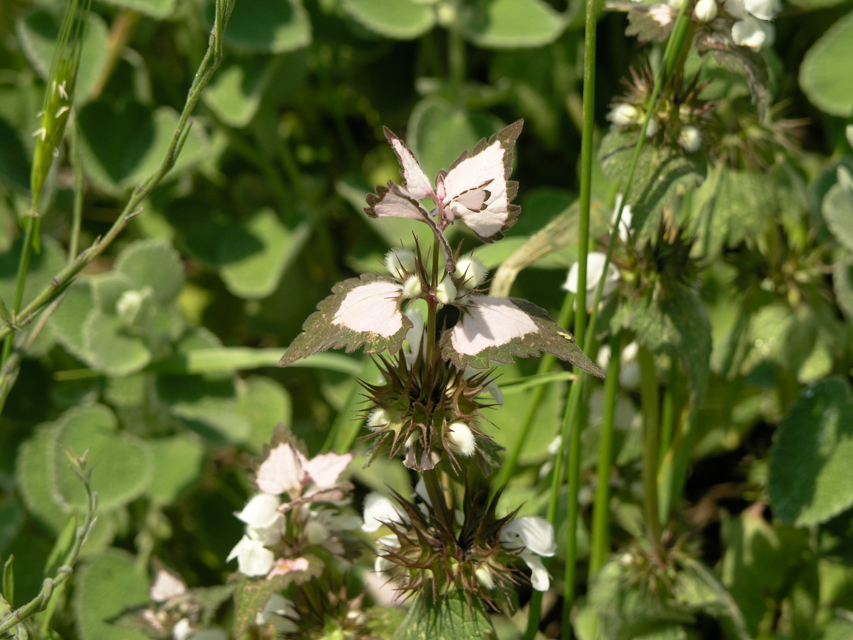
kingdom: Plantae
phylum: Tracheophyta
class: Magnoliopsida
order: Lamiales
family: Lamiaceae
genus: Lamium
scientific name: Lamium moschatum
